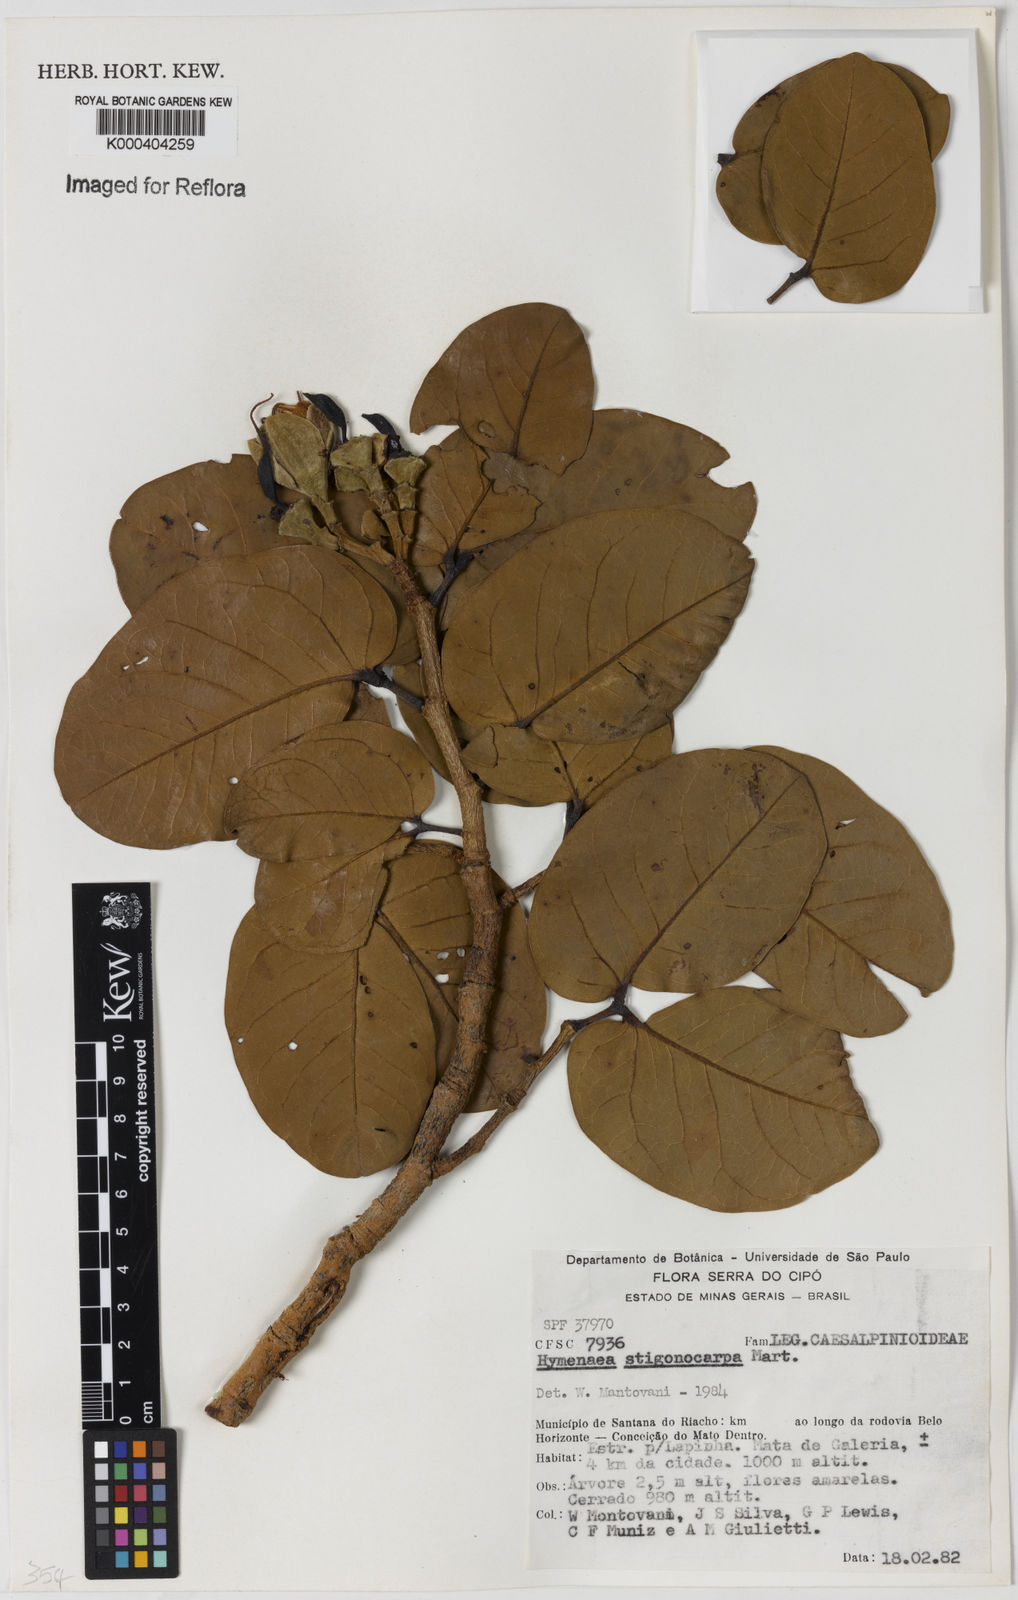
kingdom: Plantae
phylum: Tracheophyta
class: Magnoliopsida
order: Fabales
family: Fabaceae
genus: Hymenaea
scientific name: Hymenaea stigonocarpa
